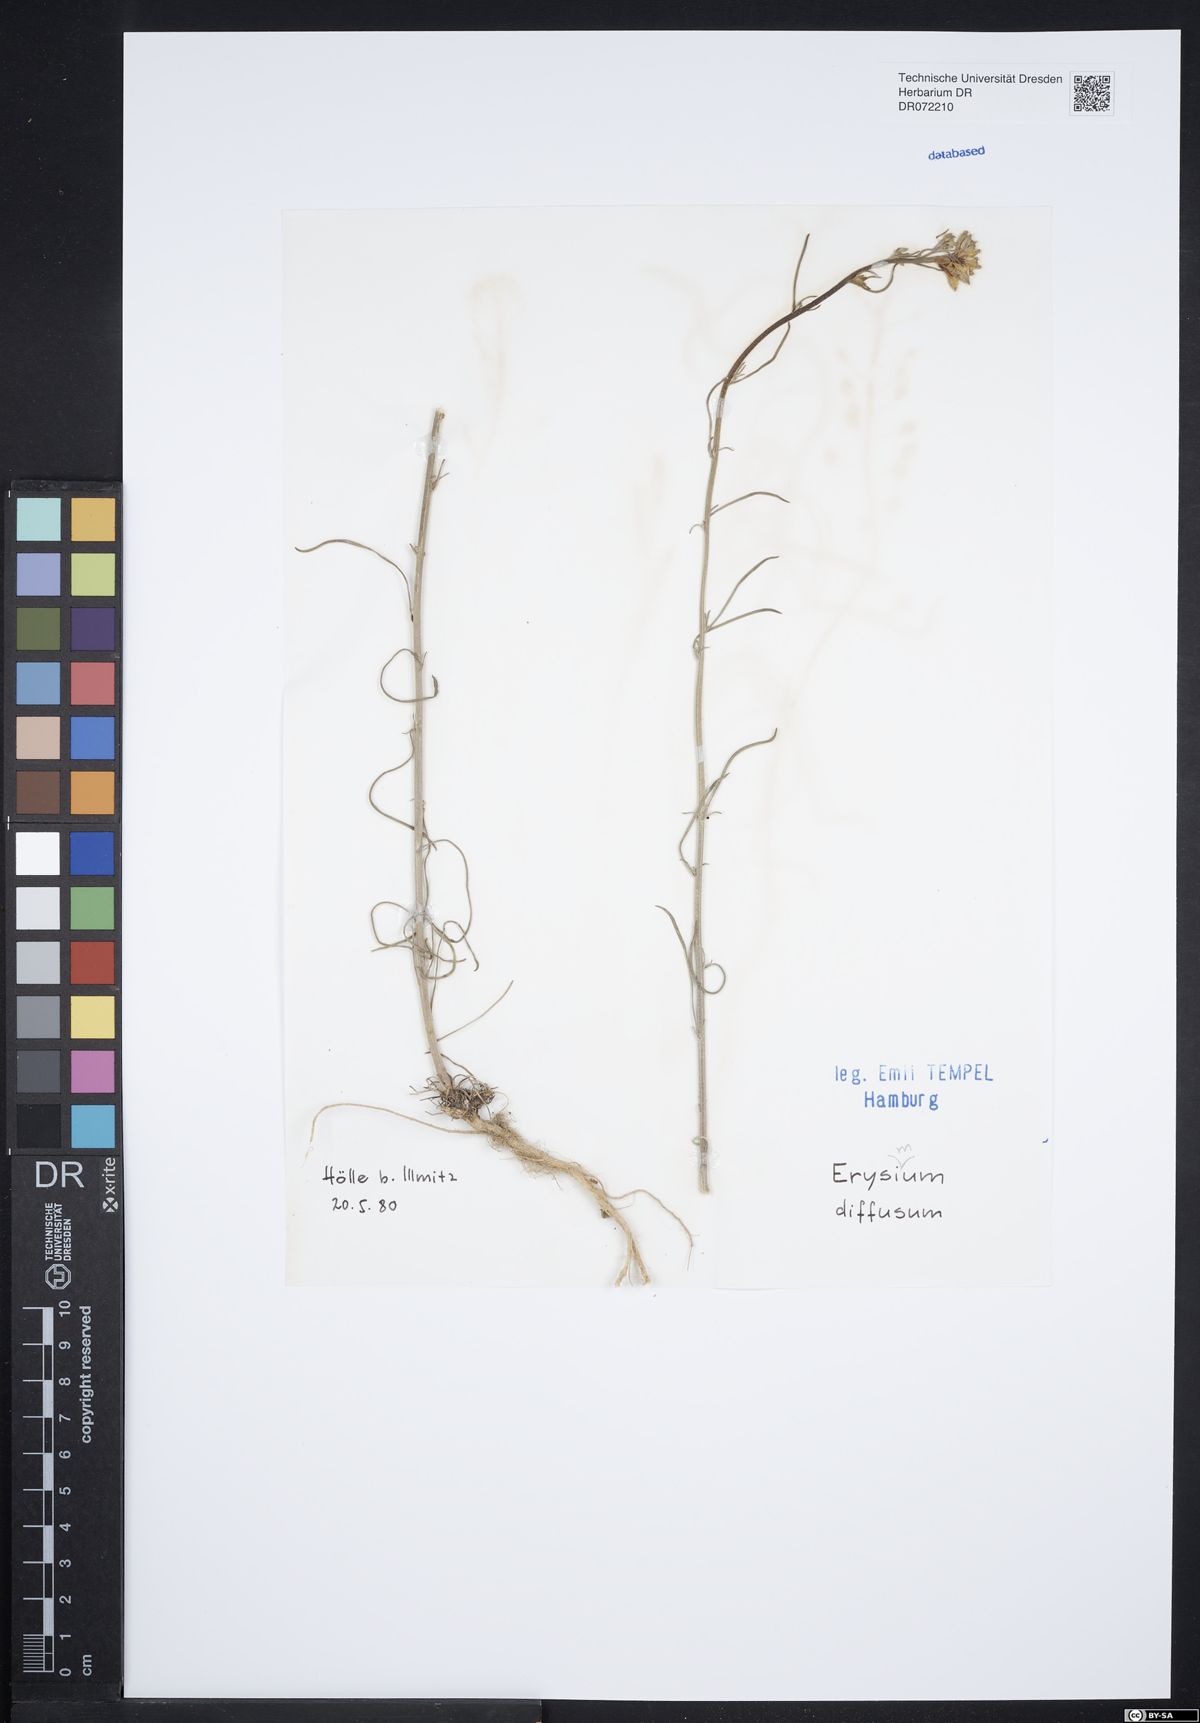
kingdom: Plantae
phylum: Tracheophyta
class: Magnoliopsida
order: Brassicales
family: Brassicaceae
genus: Erysimum
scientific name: Erysimum diffusum
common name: Diffuse wallflower
